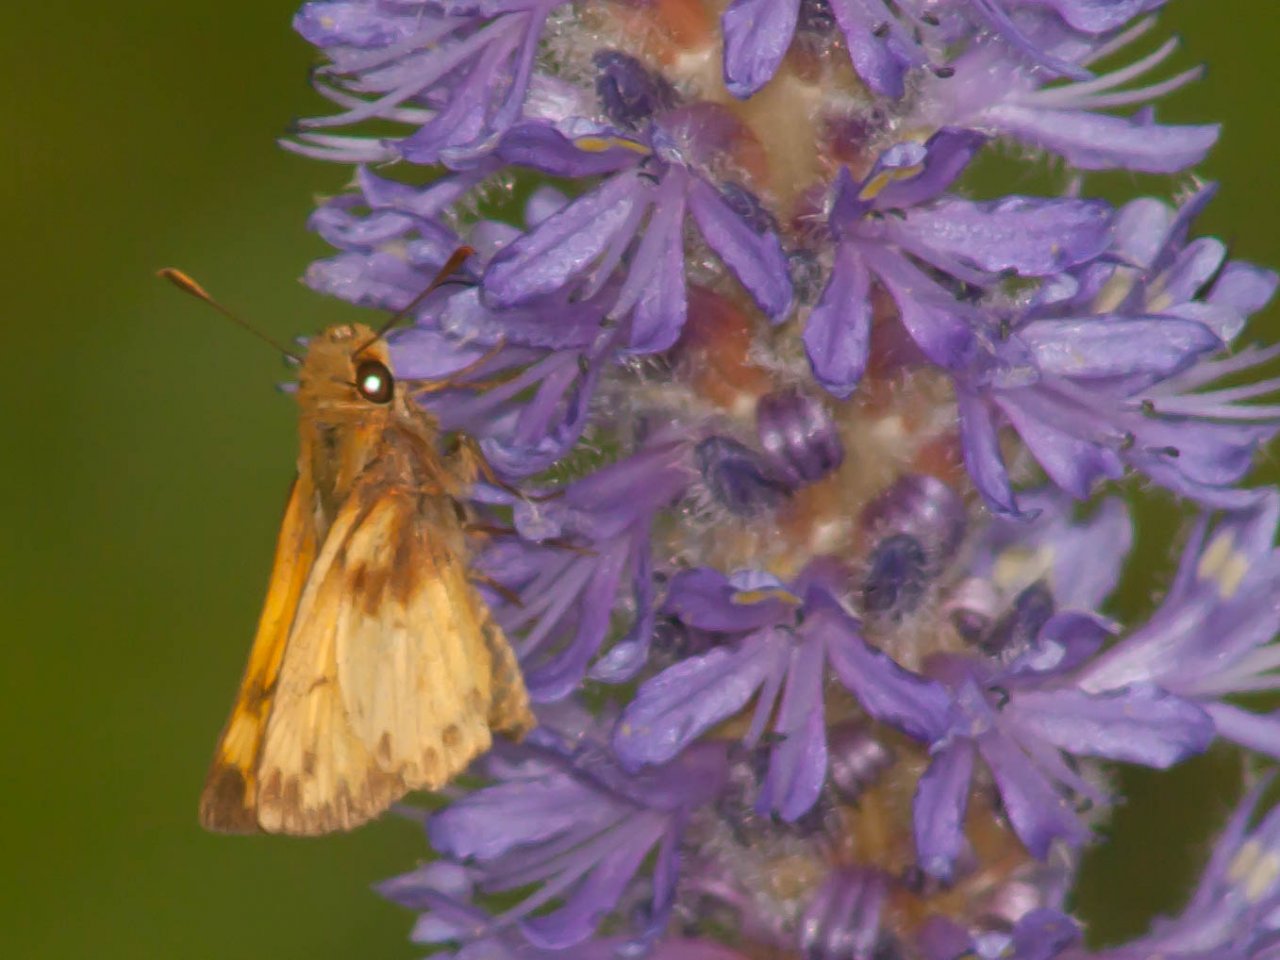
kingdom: Animalia
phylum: Arthropoda
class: Insecta
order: Lepidoptera
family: Hesperiidae
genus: Lon
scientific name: Lon zabulon
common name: Zabulon Skipper
